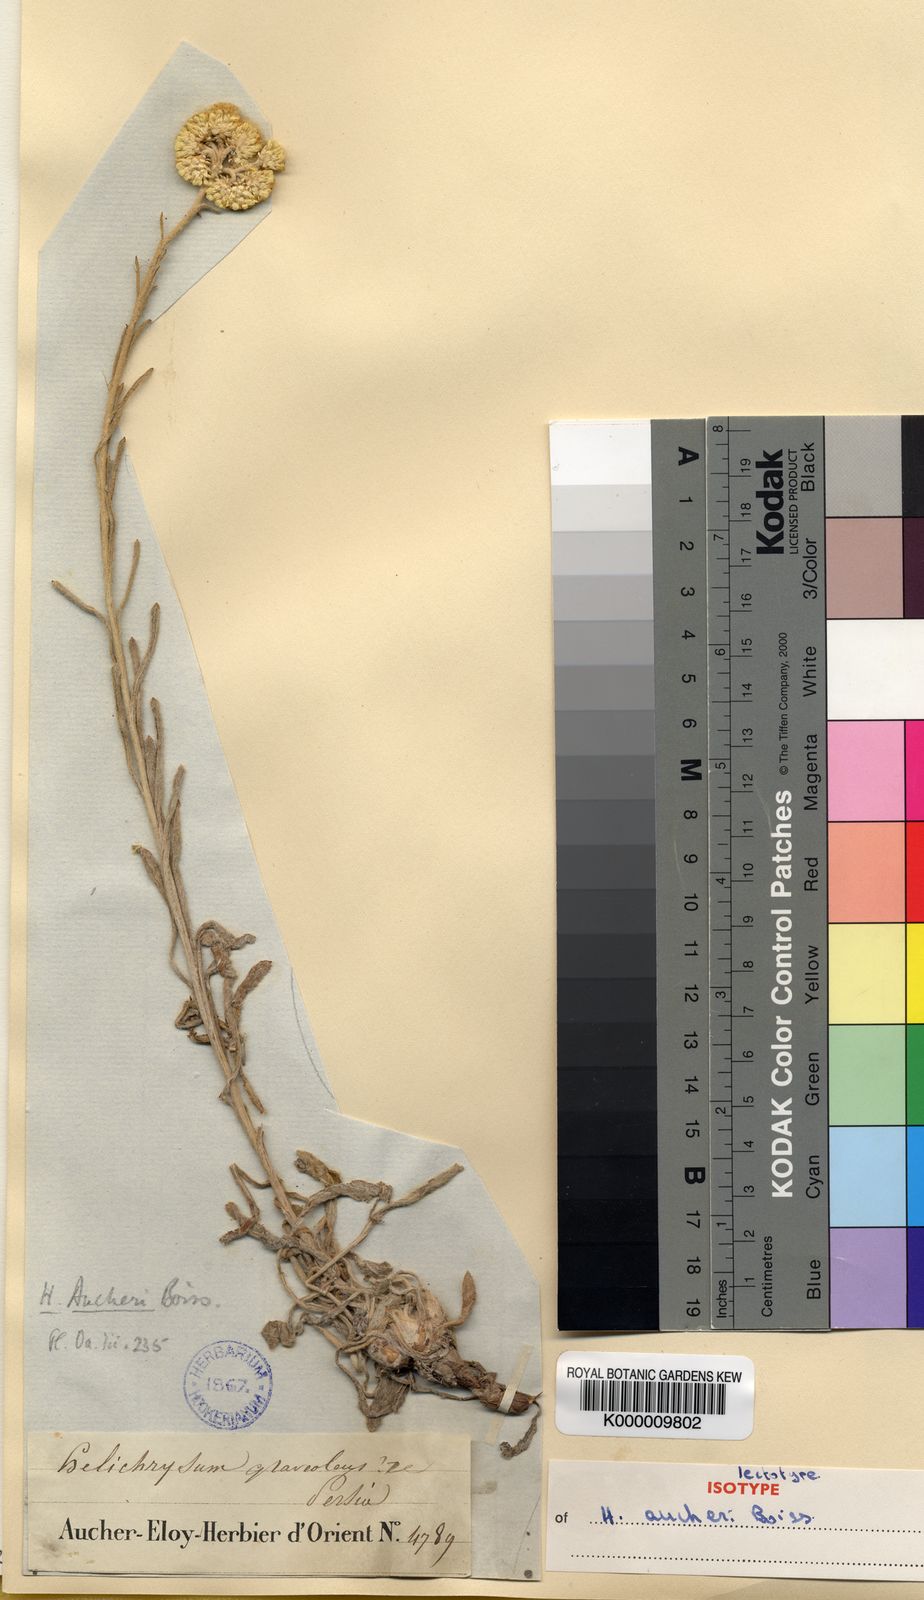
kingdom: Plantae
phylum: Tracheophyta
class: Magnoliopsida
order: Asterales
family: Asteraceae
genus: Helichrysum
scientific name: Helichrysum arenarium
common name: Strawflower
